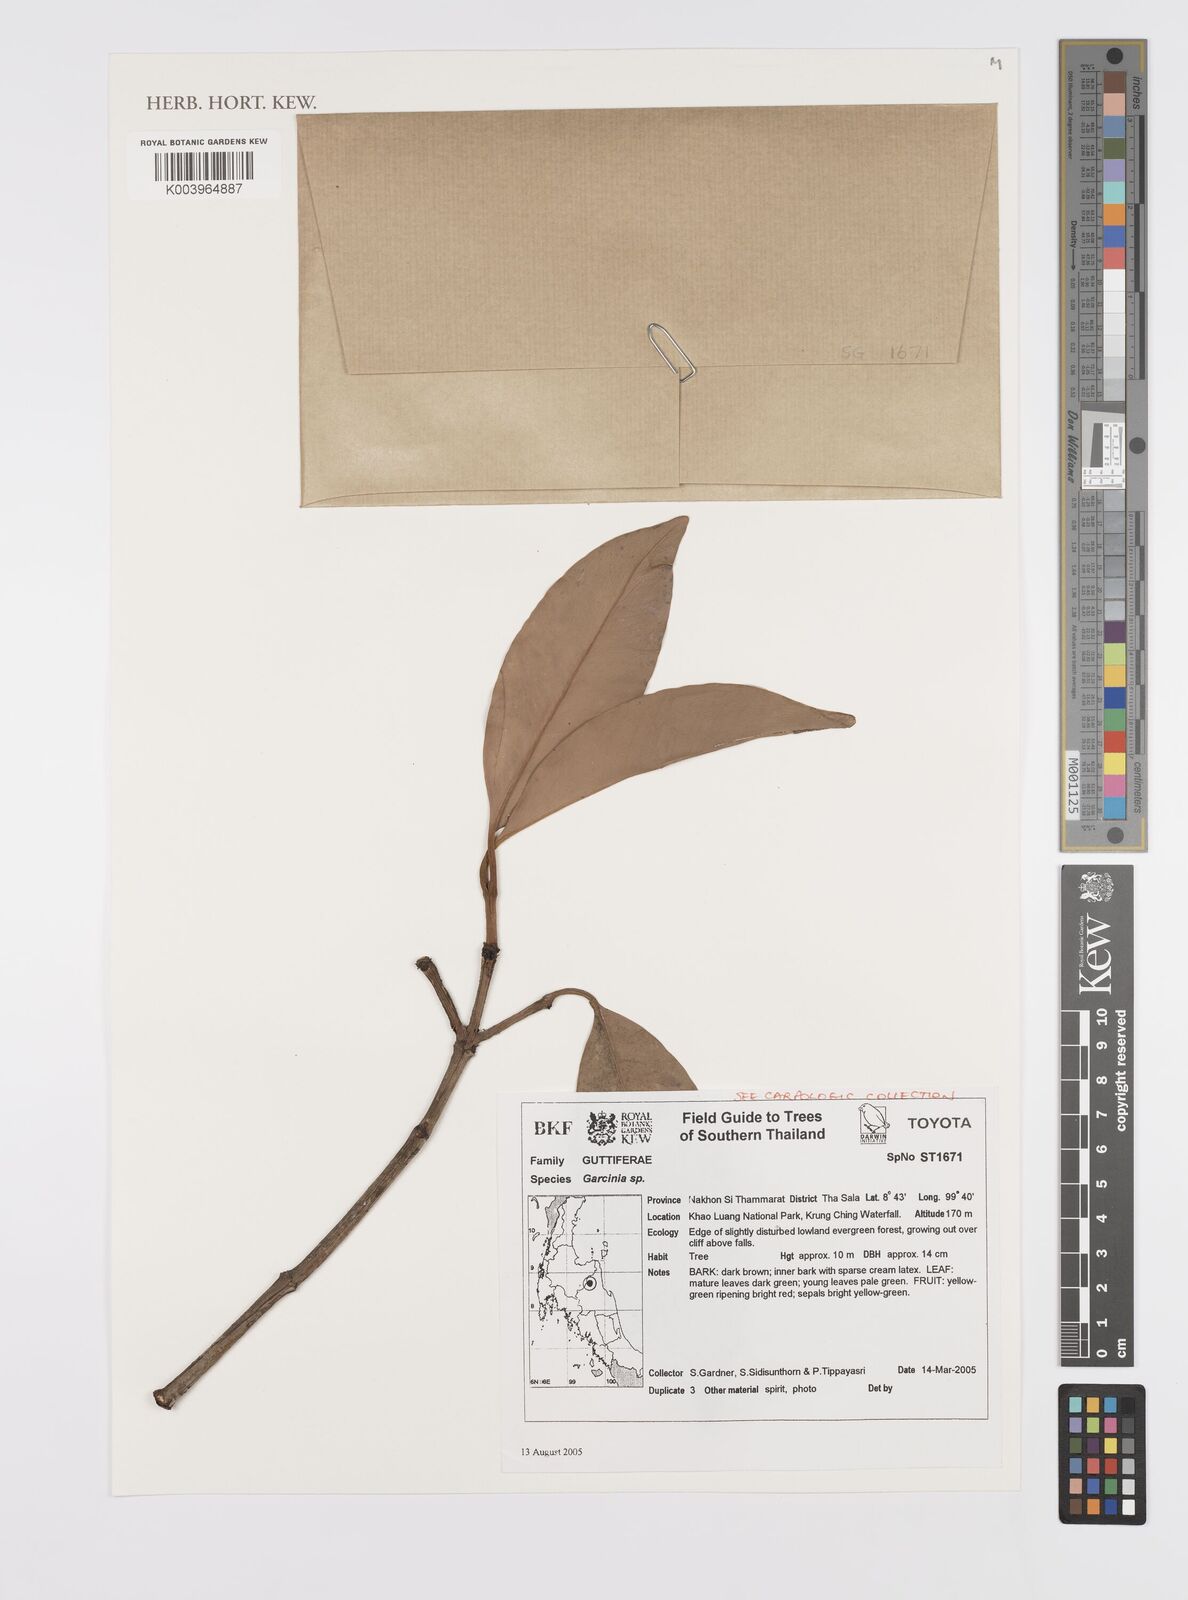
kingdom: Plantae
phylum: Tracheophyta
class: Magnoliopsida
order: Malpighiales
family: Clusiaceae
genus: Garcinia
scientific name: Garcinia
